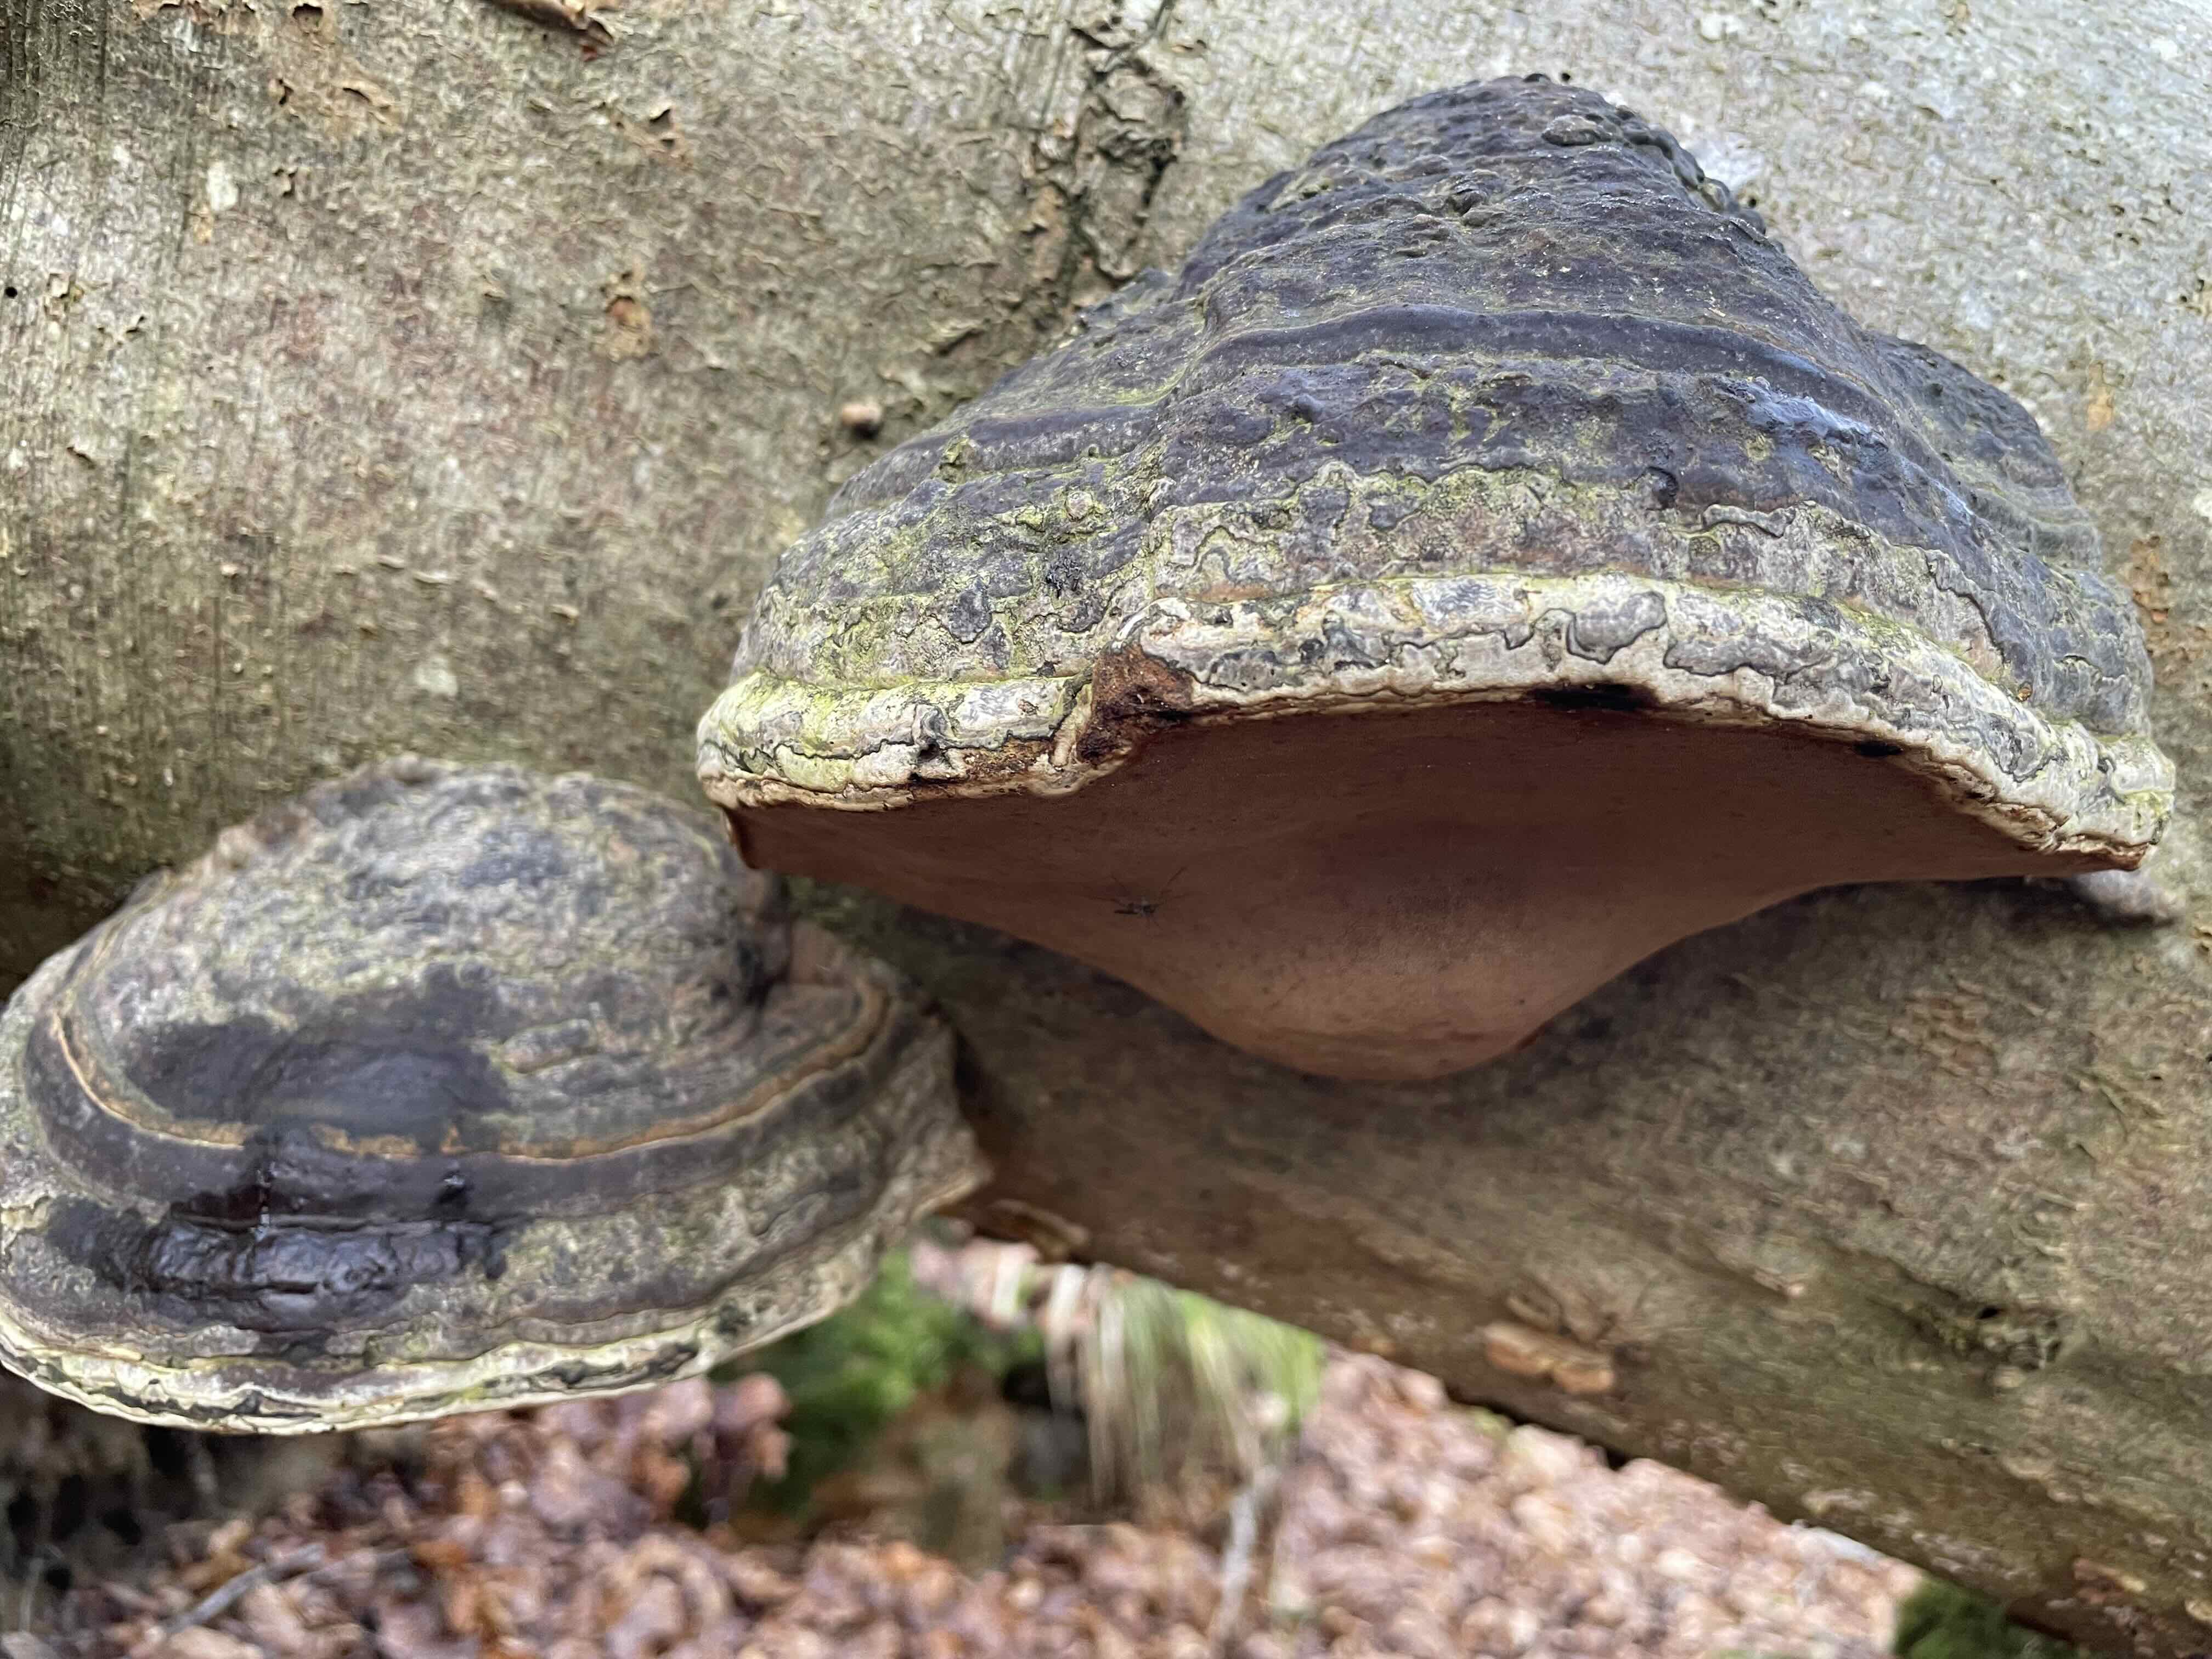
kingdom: Fungi
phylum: Basidiomycota
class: Agaricomycetes
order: Polyporales
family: Polyporaceae
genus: Fomes
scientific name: Fomes fomentarius
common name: tøndersvamp
